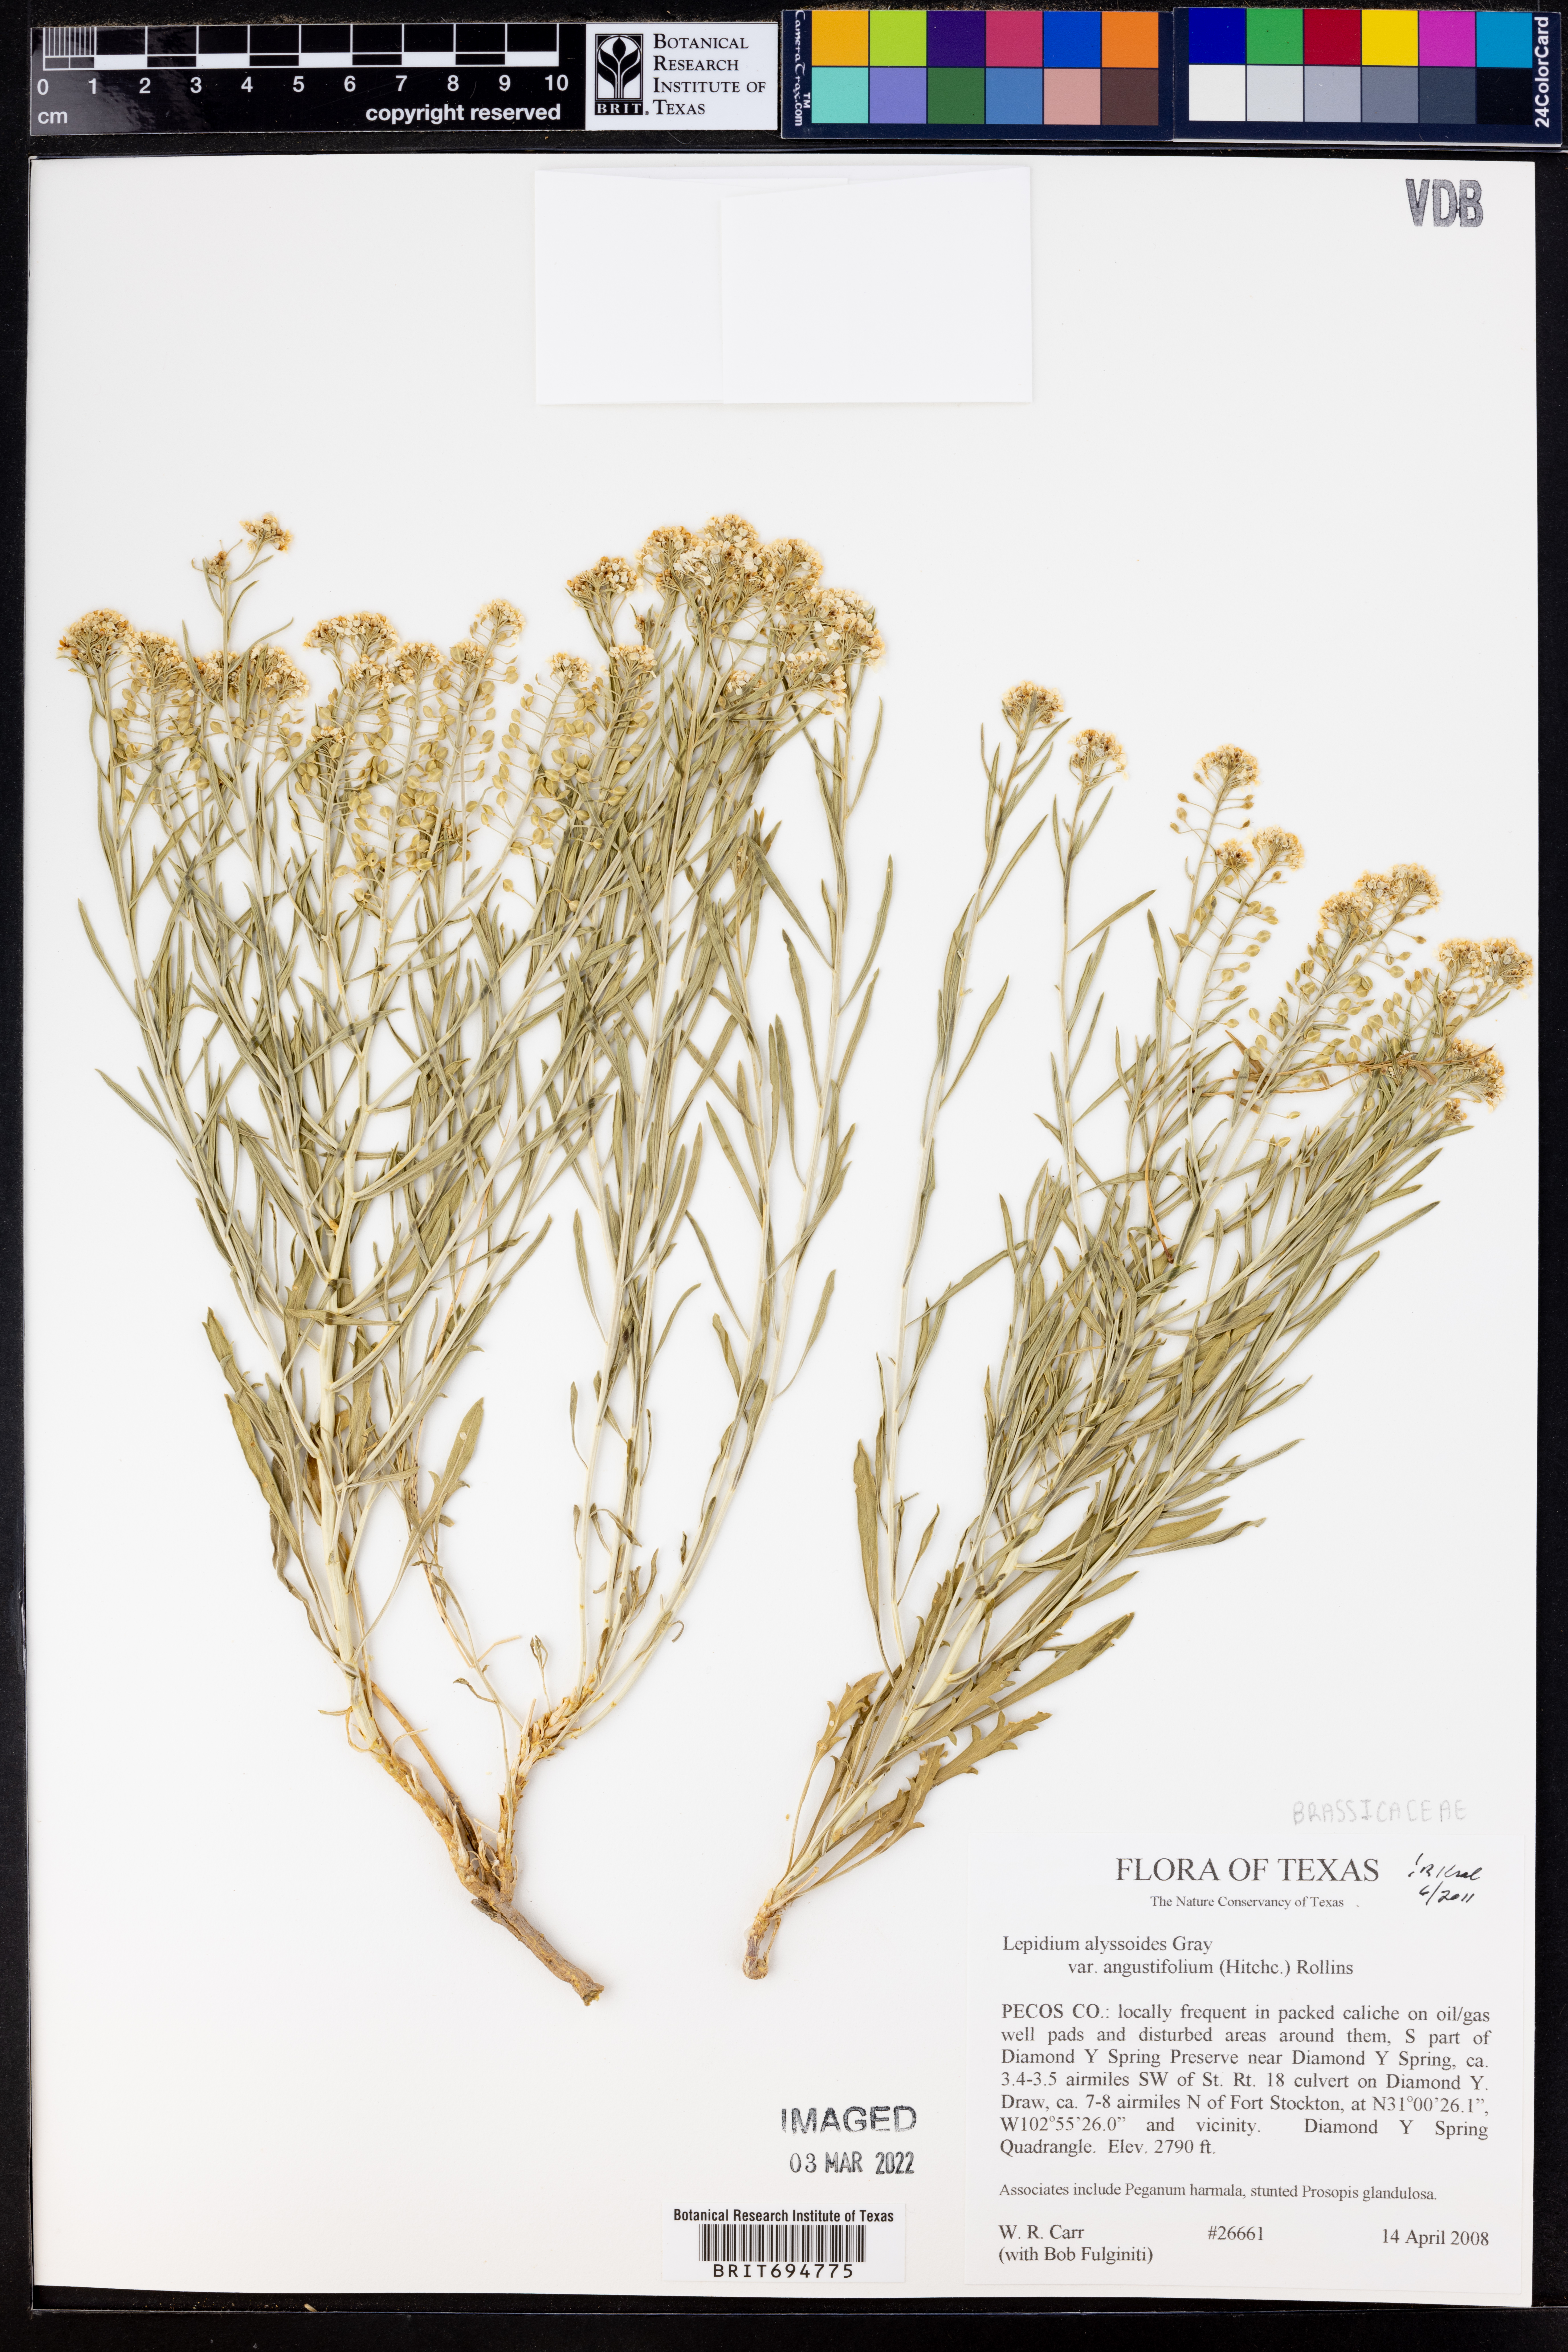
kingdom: Plantae
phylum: Tracheophyta
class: Magnoliopsida
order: Brassicales
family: Brassicaceae
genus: Lepidium
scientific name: Lepidium alyssoides
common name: Mesa pepperweed
